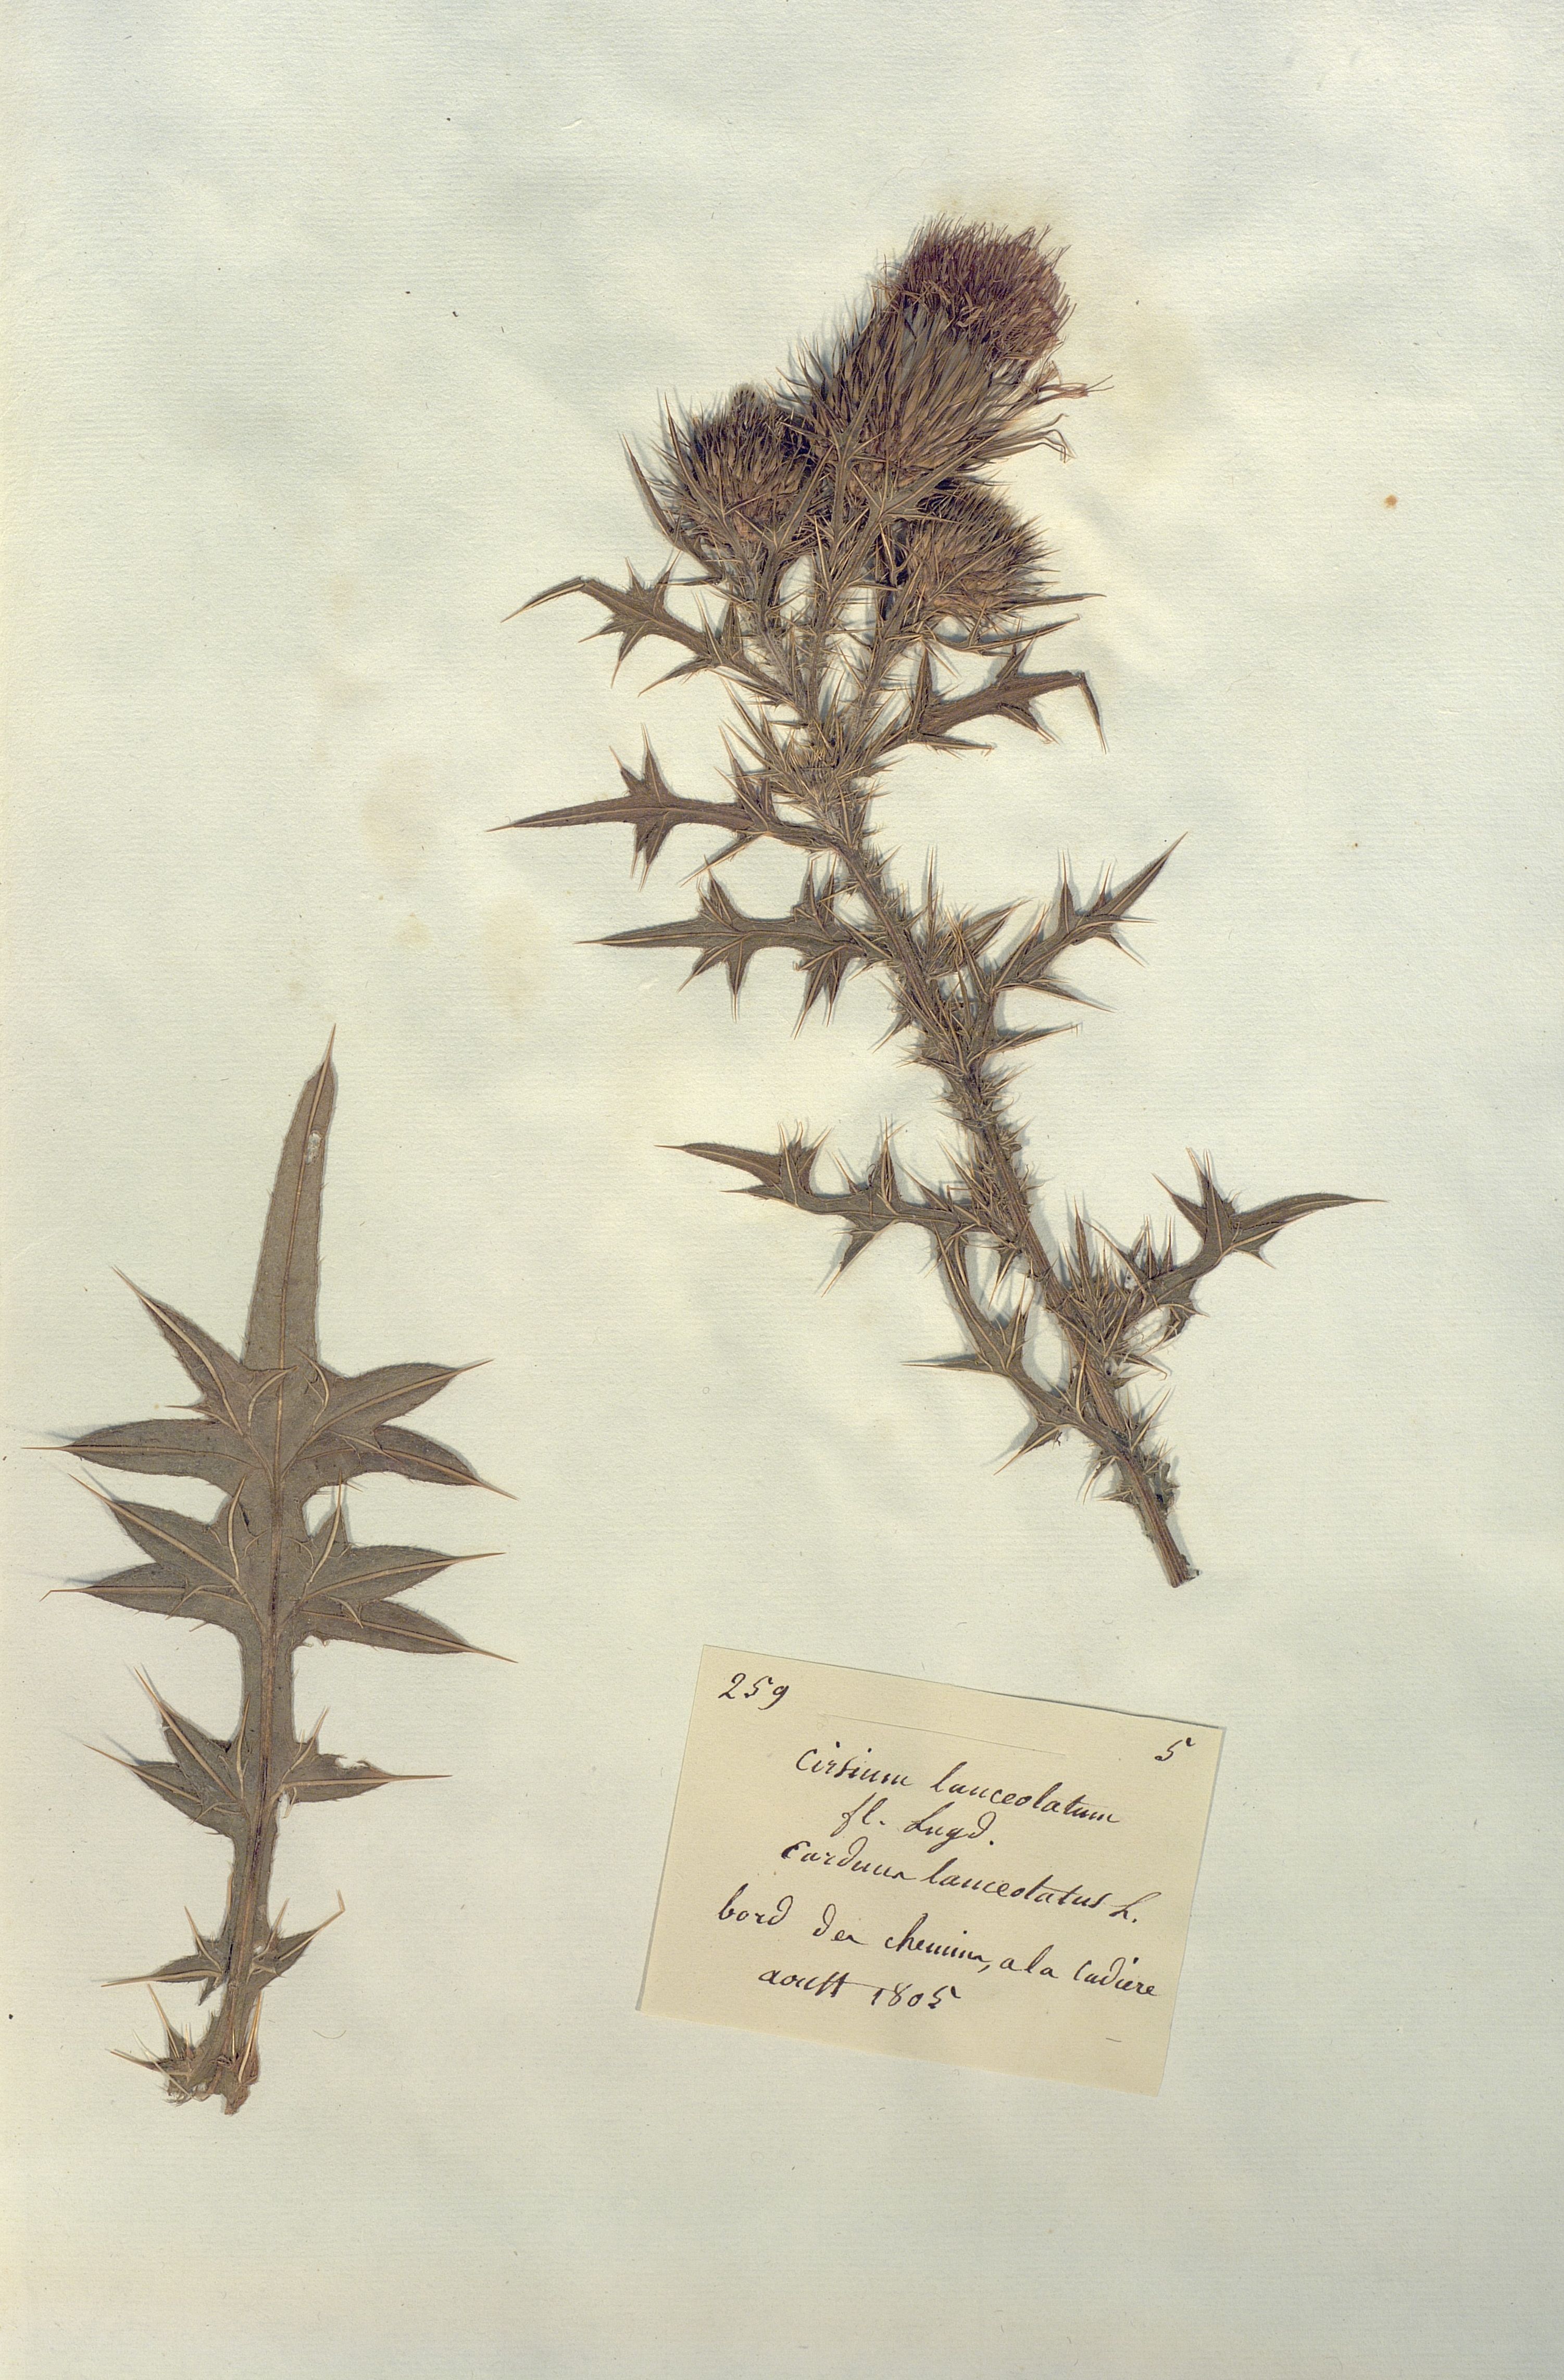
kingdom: Plantae
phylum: Tracheophyta
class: Magnoliopsida
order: Asterales
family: Asteraceae
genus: Cirsium
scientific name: Cirsium
